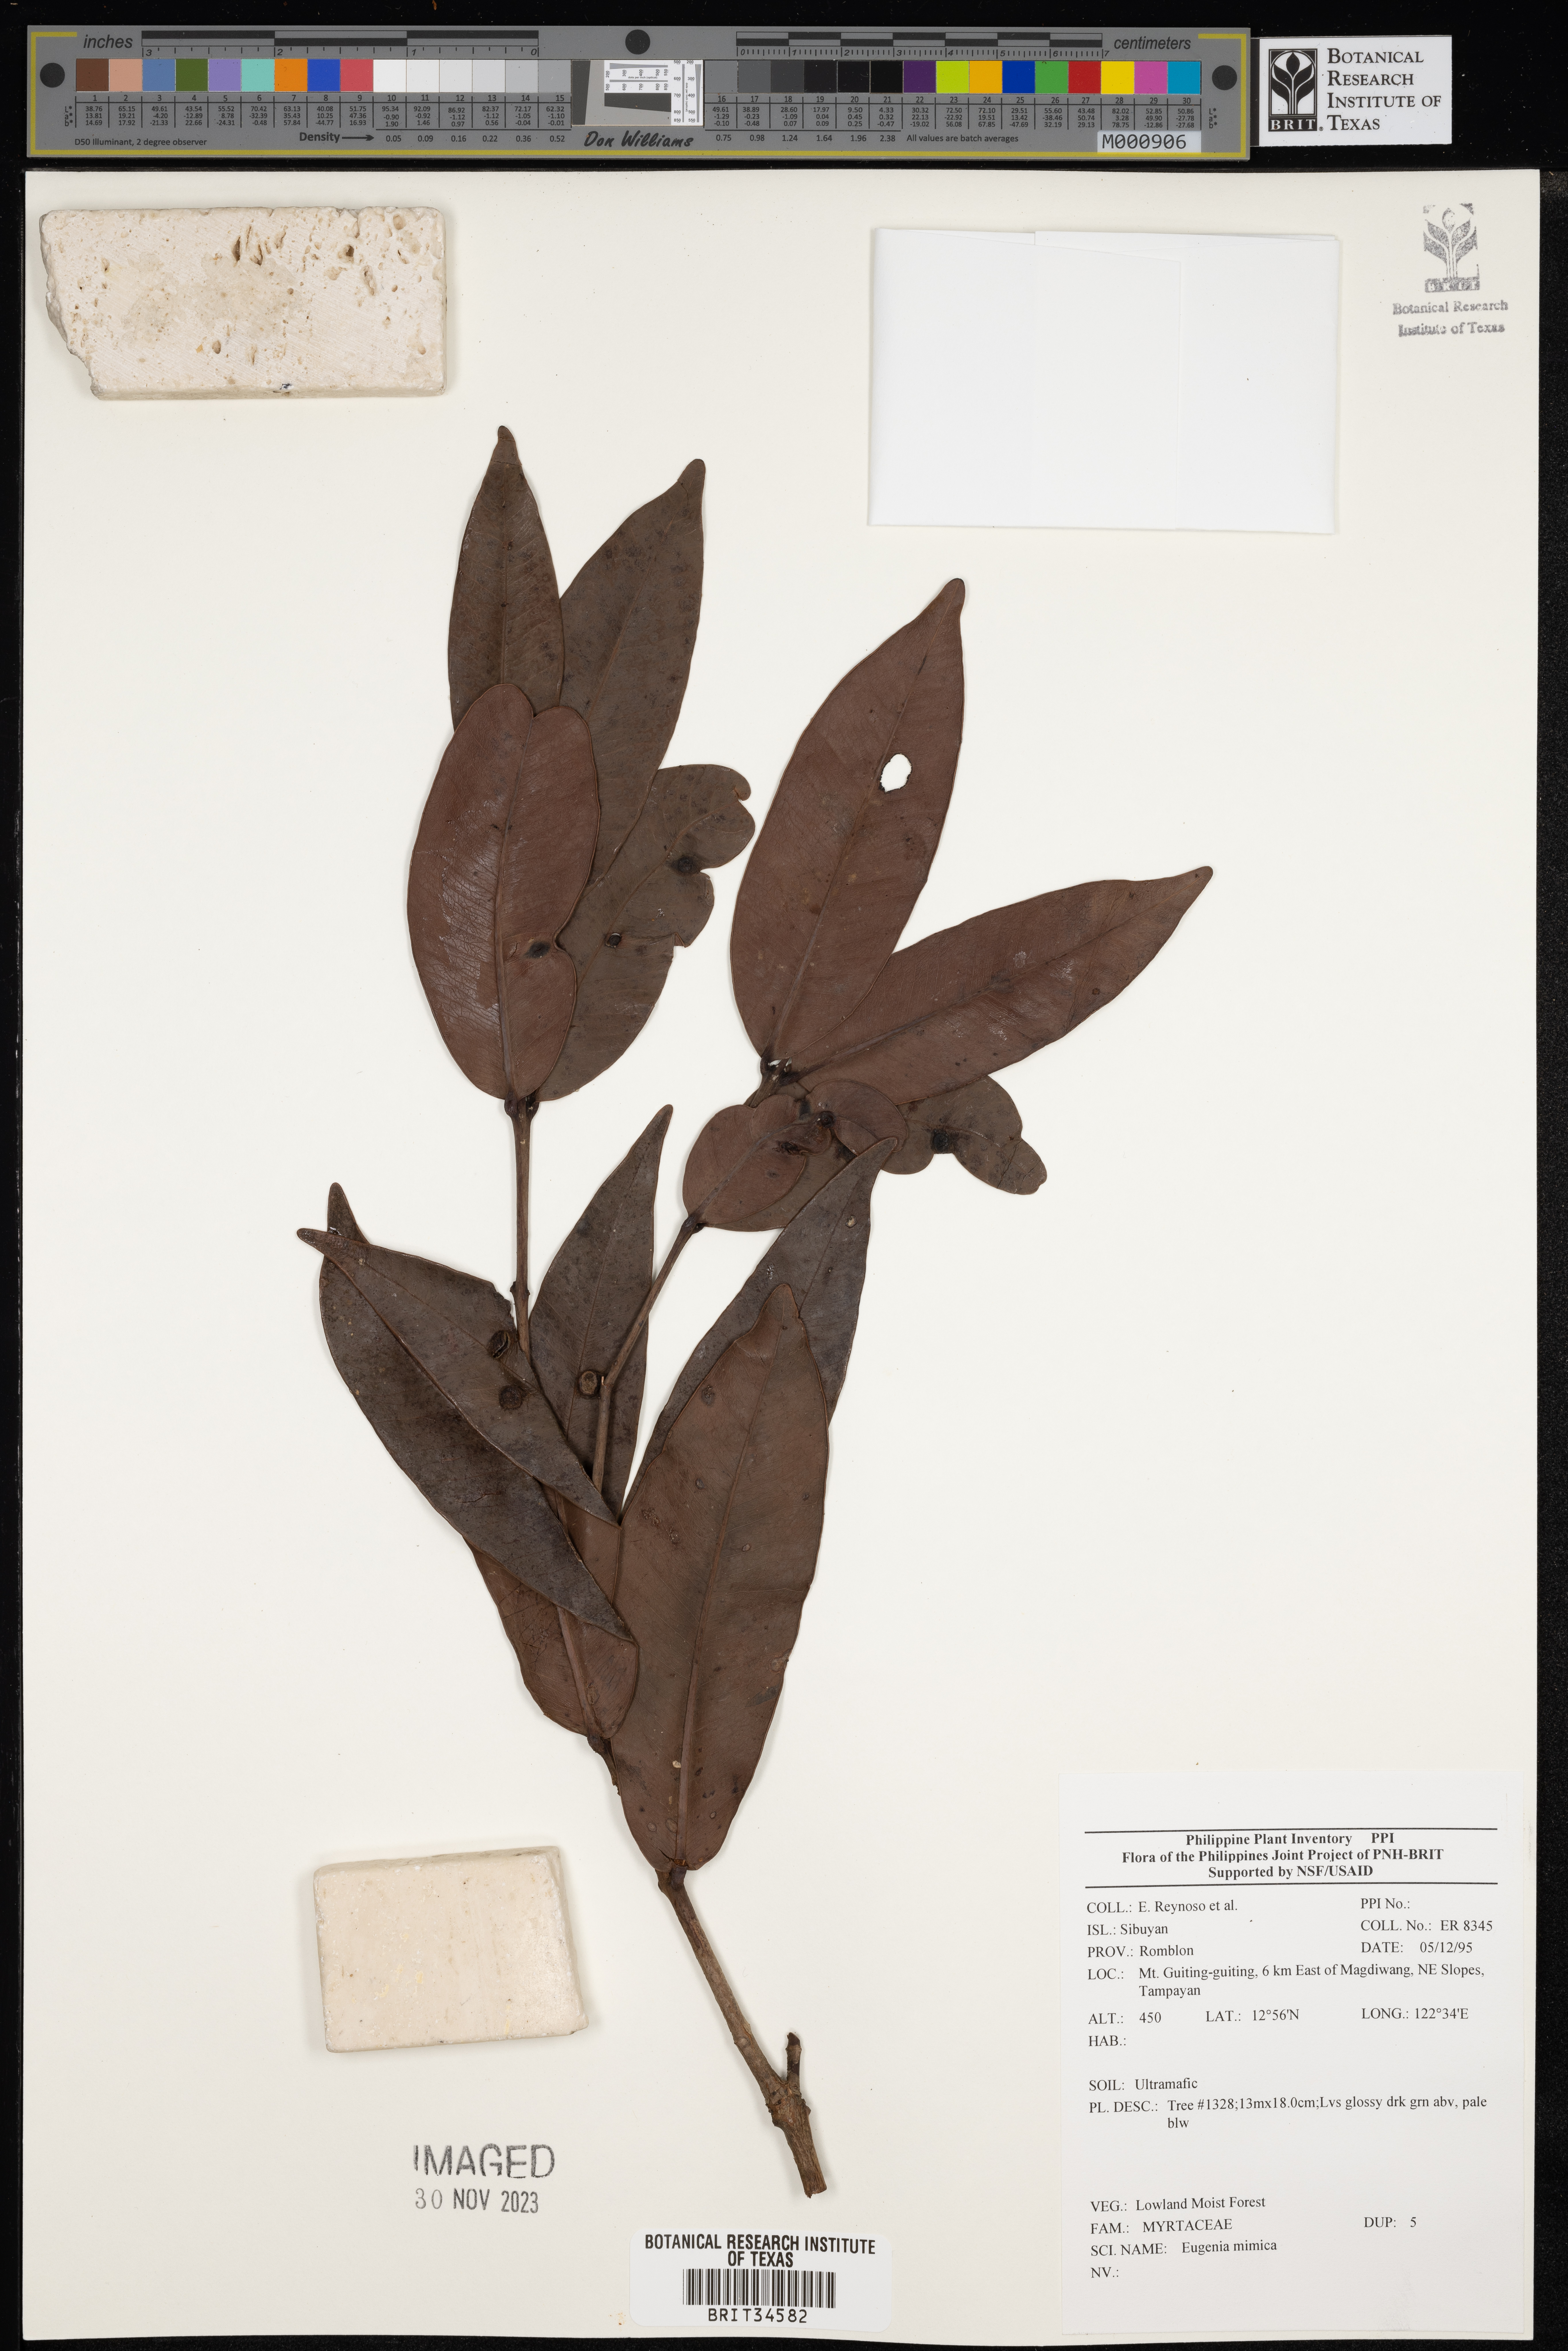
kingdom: Plantae
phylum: Tracheophyta
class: Magnoliopsida
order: Myrtales
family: Myrtaceae
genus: Eugenia
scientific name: Eugenia
